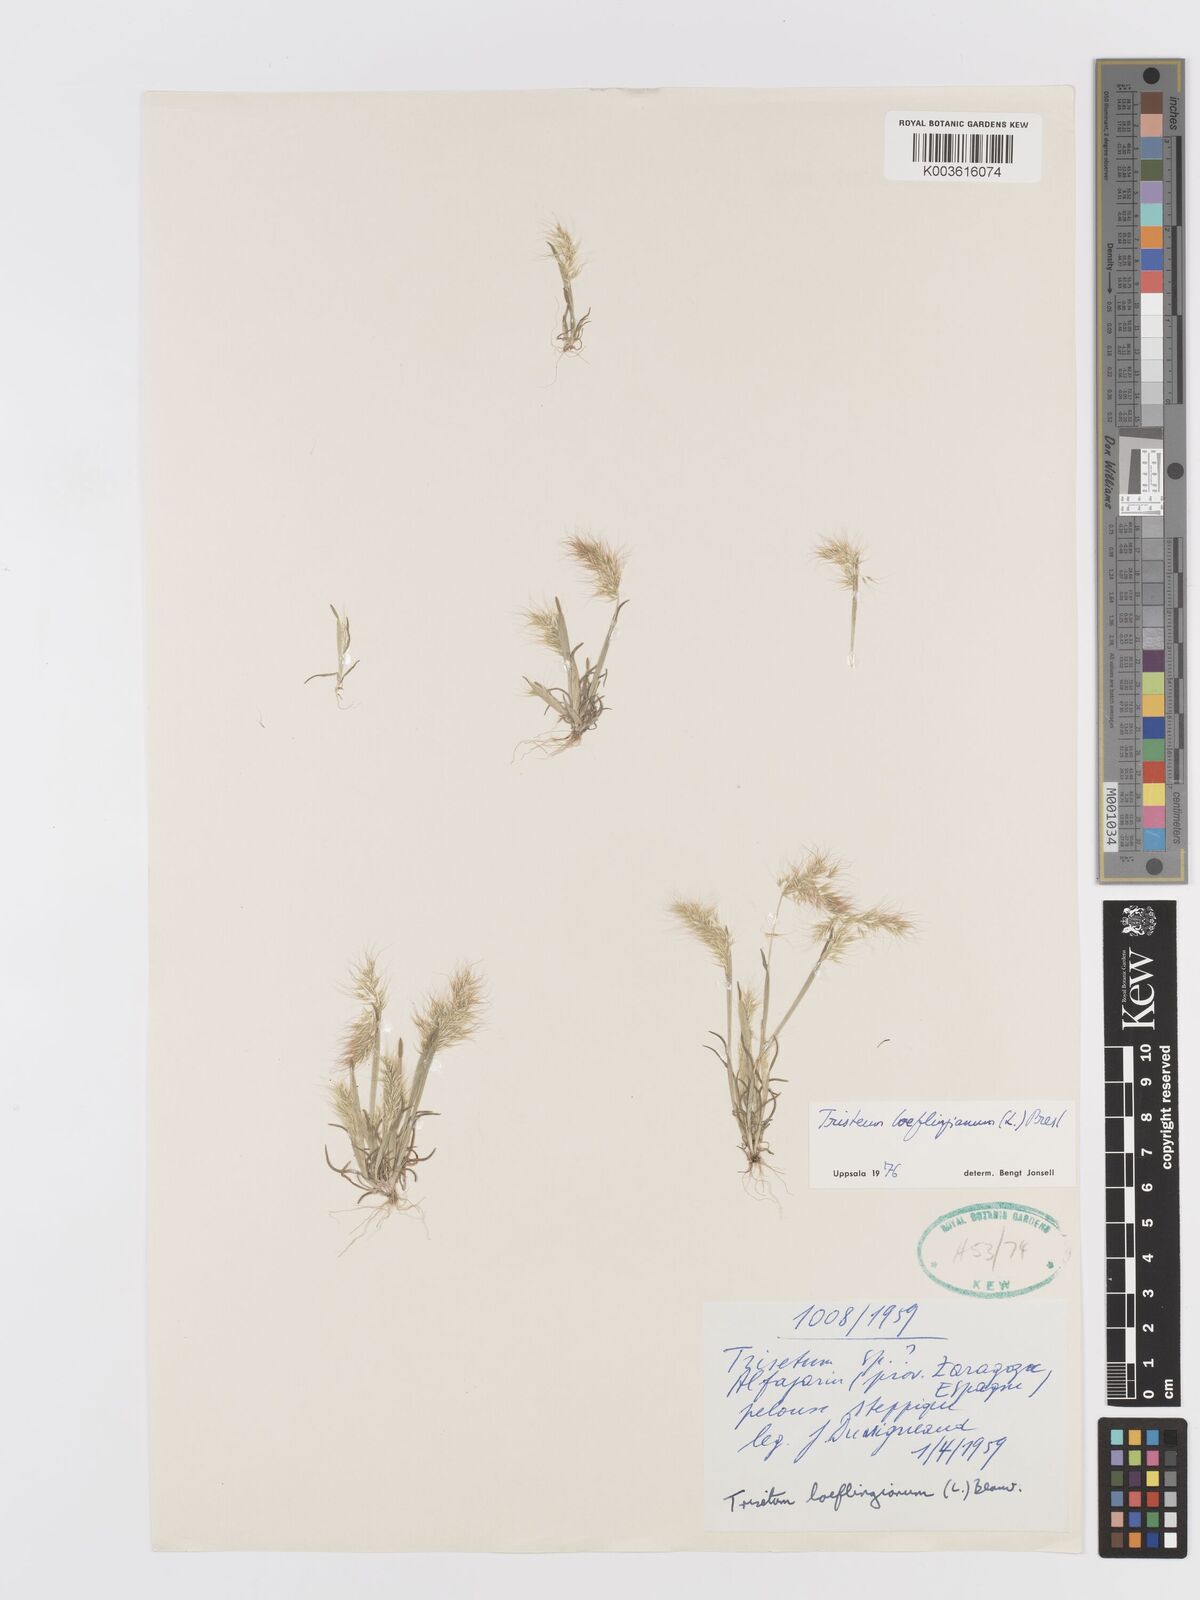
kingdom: Plantae
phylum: Tracheophyta
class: Liliopsida
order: Poales
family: Poaceae
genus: Trisetaria
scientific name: Trisetaria loeflingiana
